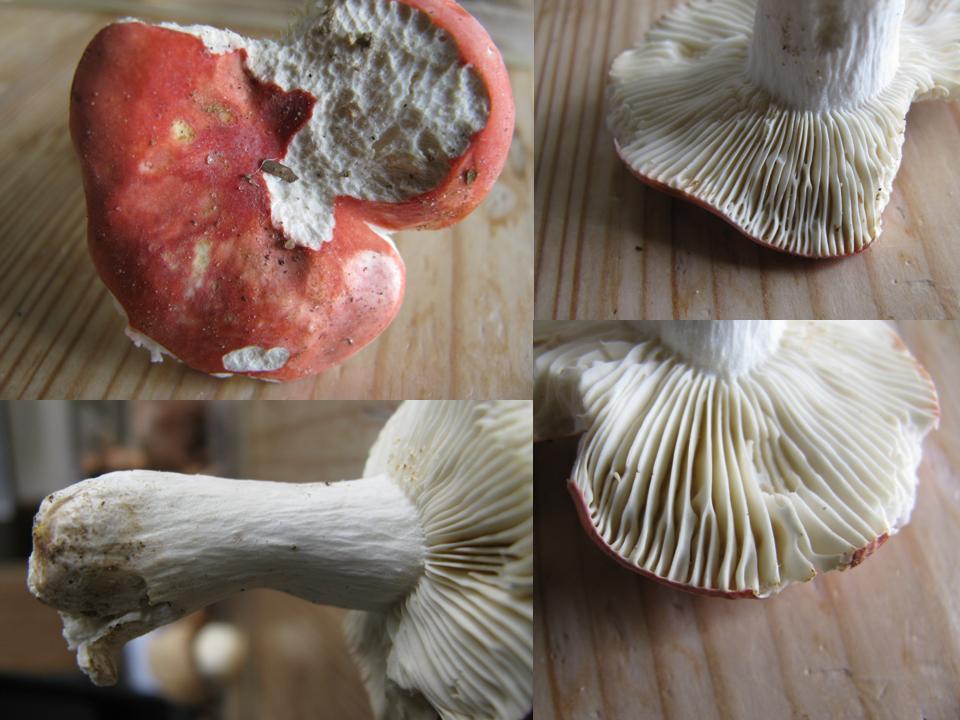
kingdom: Fungi
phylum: Basidiomycota
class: Agaricomycetes
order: Russulales
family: Russulaceae
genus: Russula
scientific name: Russula pseudointegra
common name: cinnoberrød skørhat
